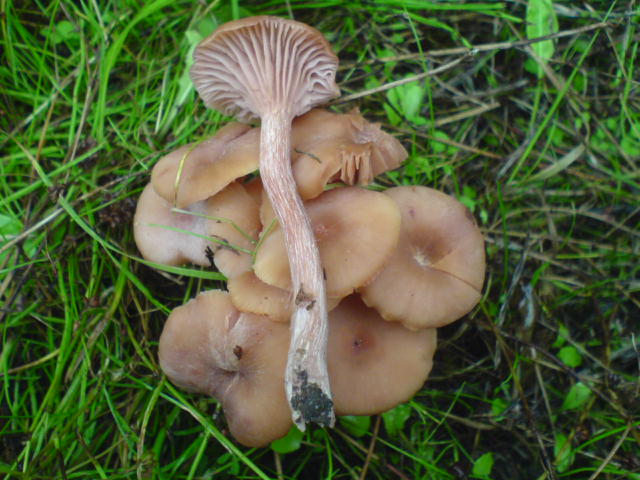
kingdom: Fungi
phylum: Basidiomycota
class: Agaricomycetes
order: Agaricales
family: Hydnangiaceae
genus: Laccaria
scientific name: Laccaria laccata
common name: rød ametysthat
